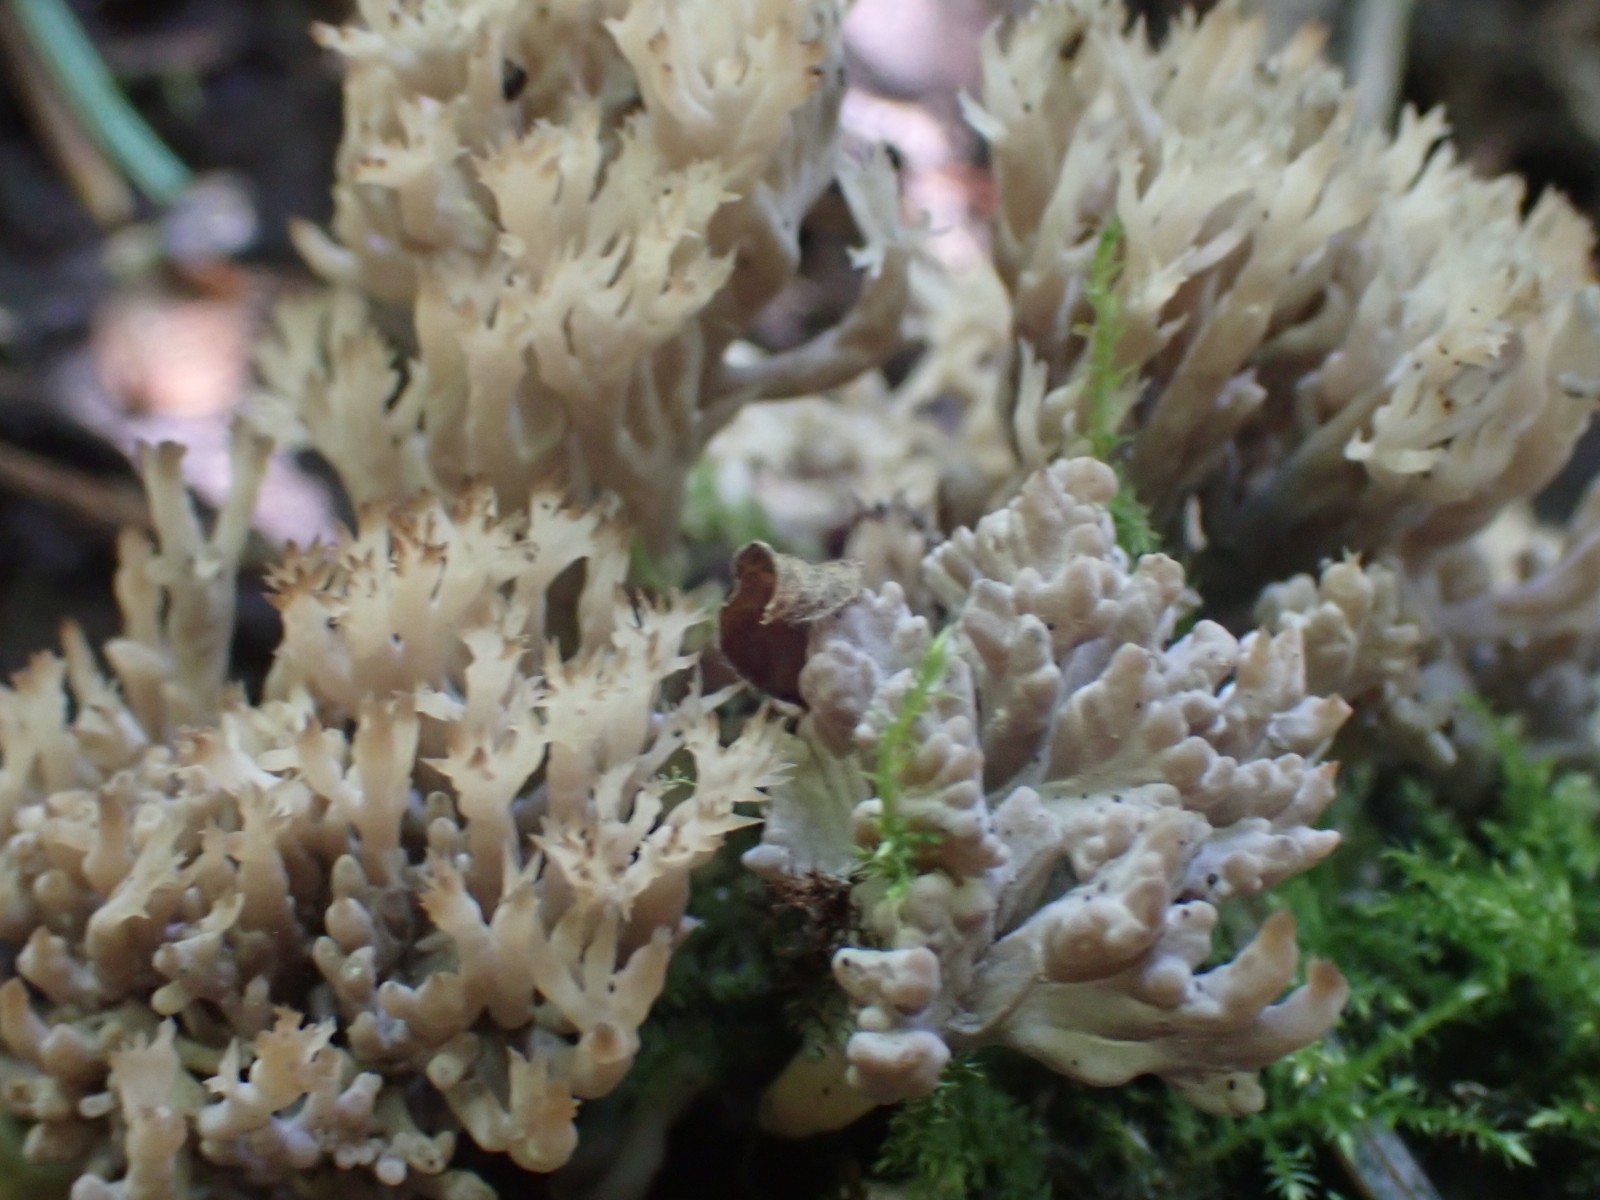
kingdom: Fungi
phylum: Basidiomycota
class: Agaricomycetes
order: Cantharellales
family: Hydnaceae
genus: Clavulina
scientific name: Clavulina
